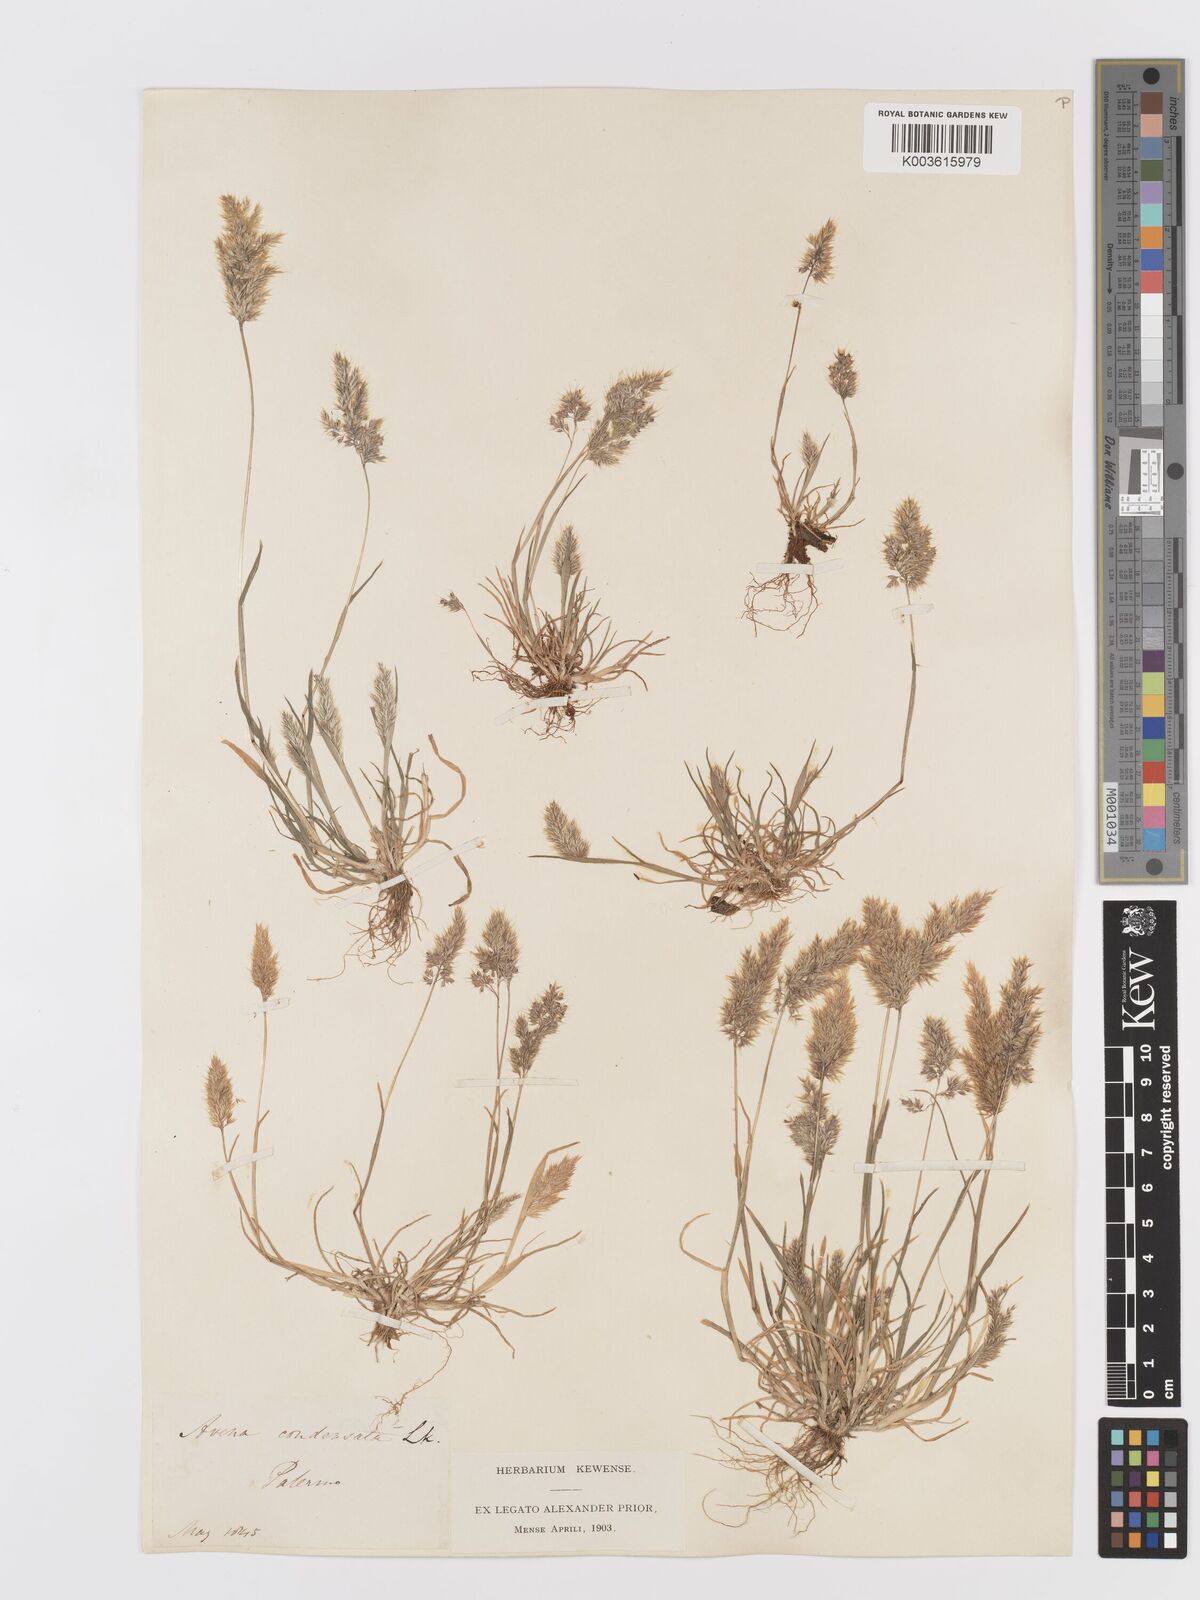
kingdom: Plantae
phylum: Tracheophyta
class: Liliopsida
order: Poales
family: Poaceae
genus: Trisetaria
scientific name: Trisetaria aurea
